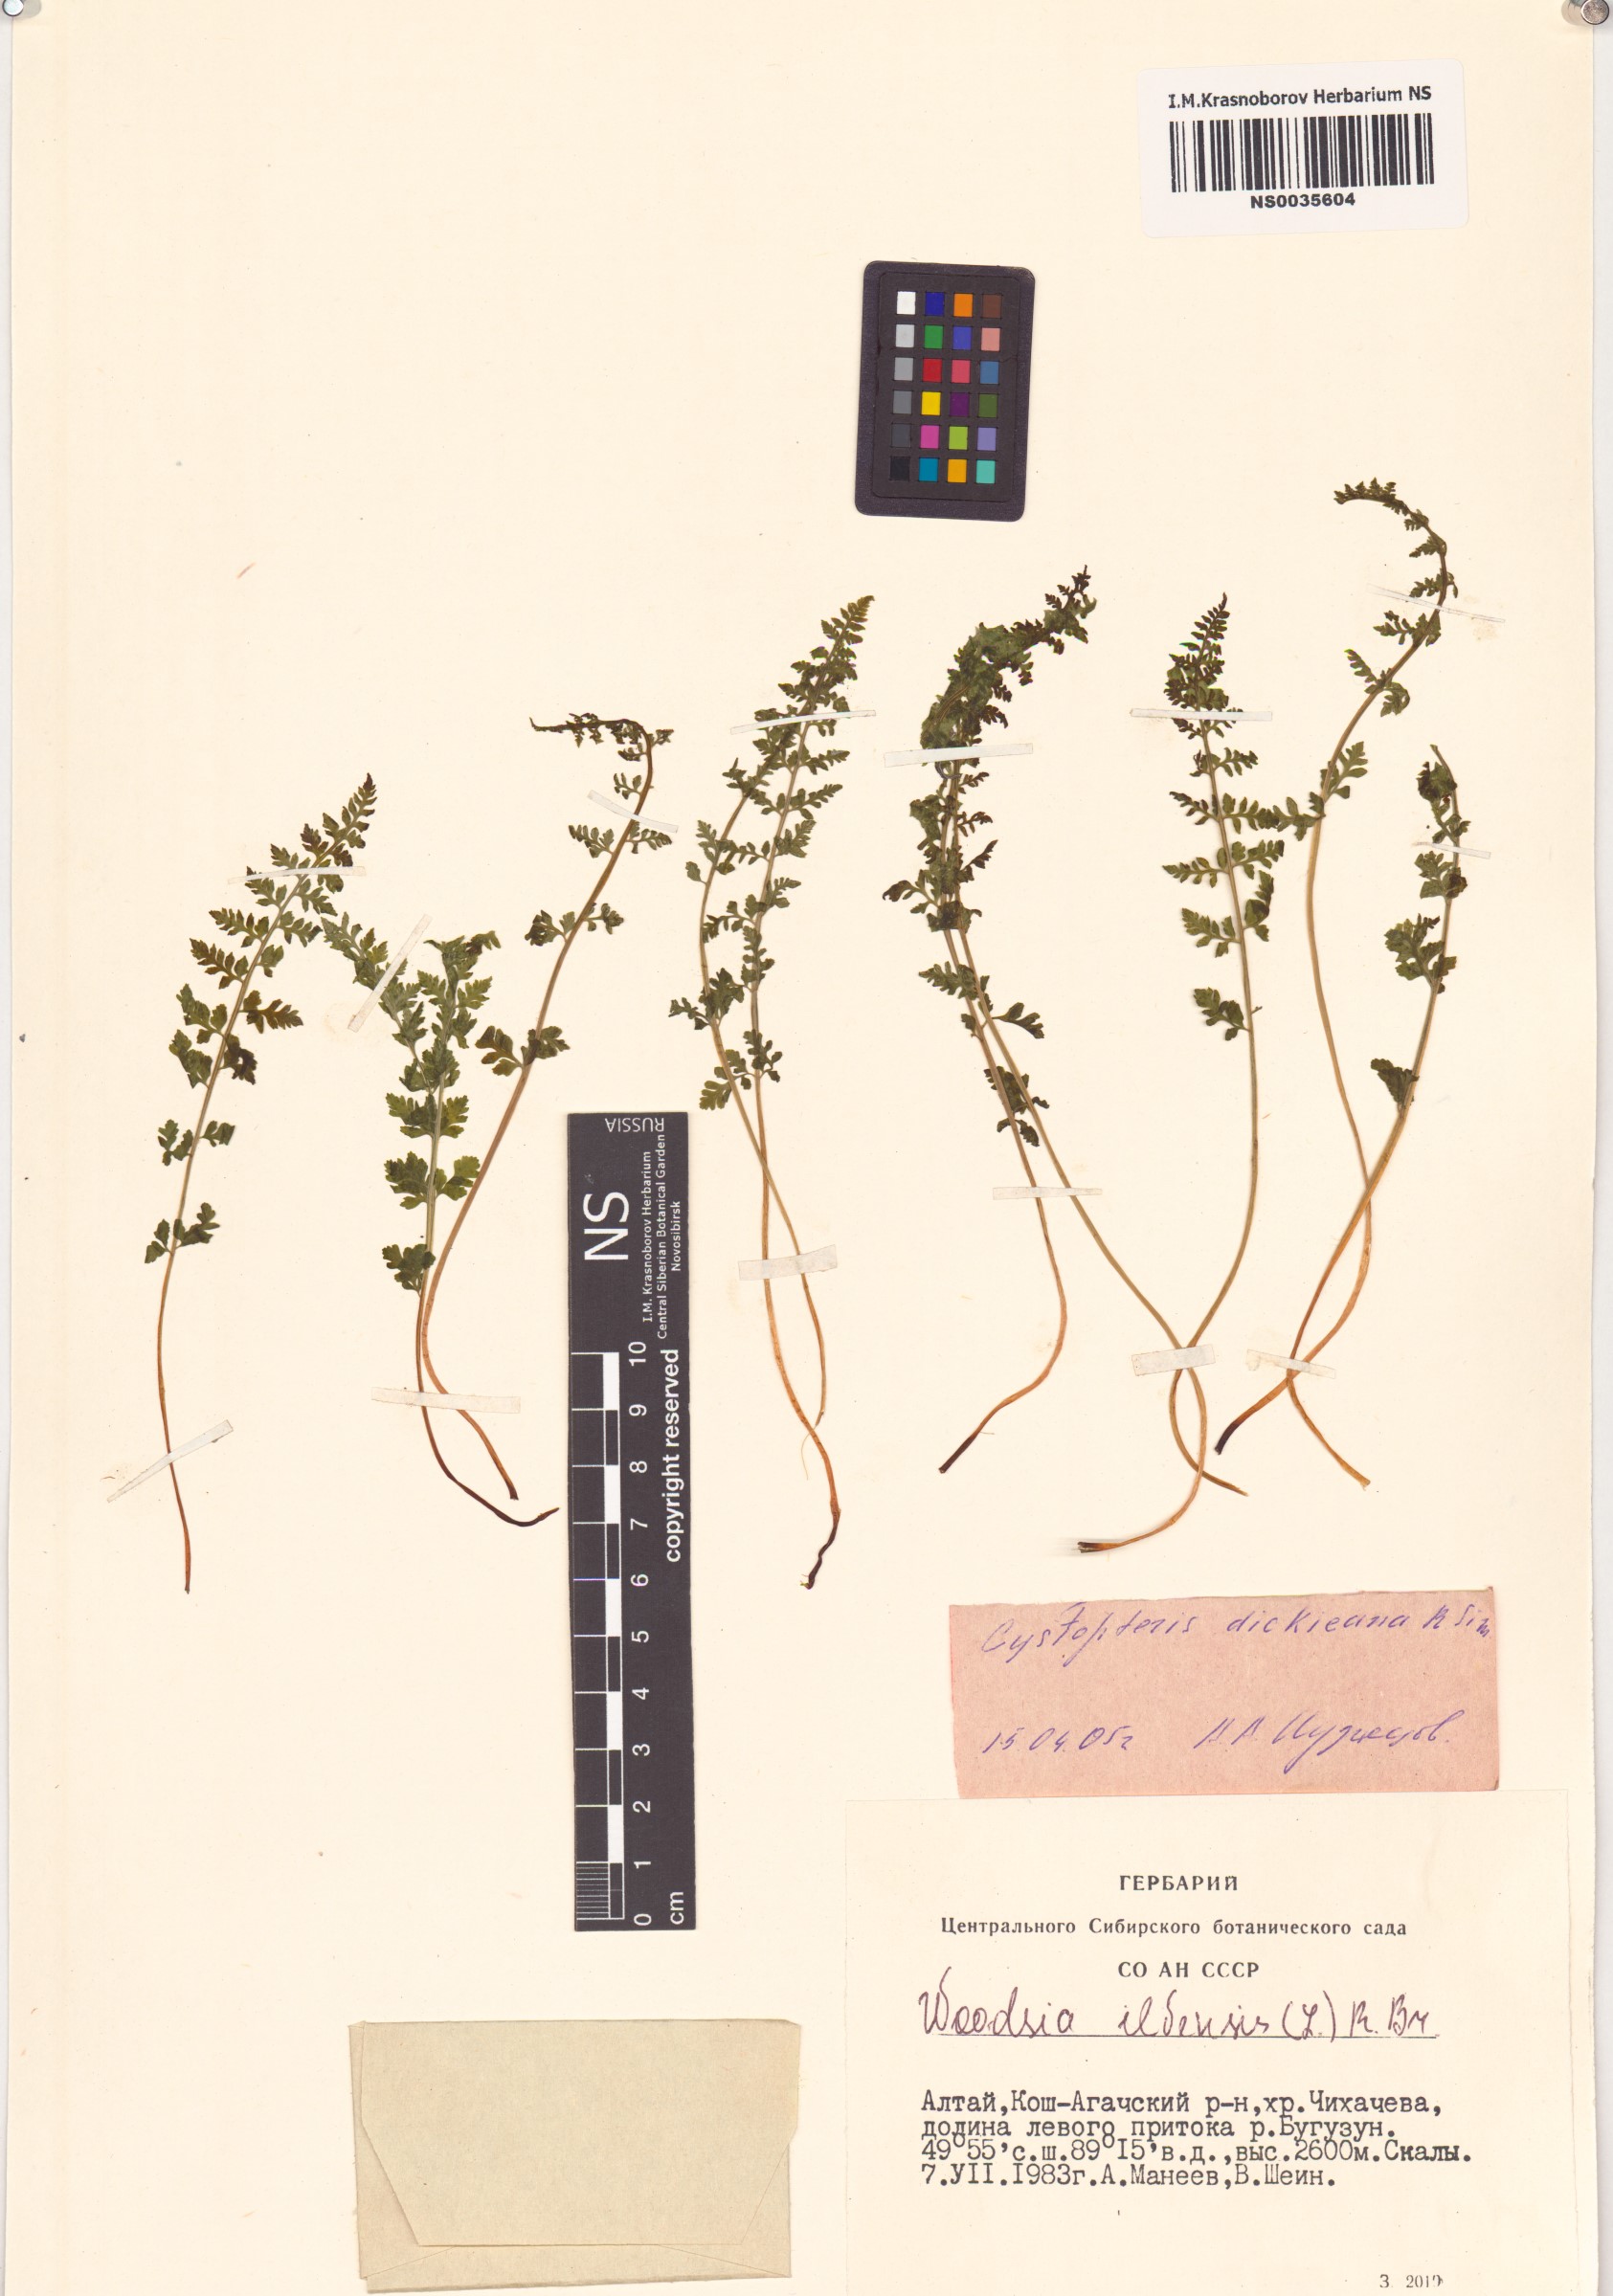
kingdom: Plantae
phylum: Tracheophyta
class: Polypodiopsida
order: Polypodiales
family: Cystopteridaceae
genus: Cystopteris
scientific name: Cystopteris dickieana
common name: Dickie's bladder-fern
